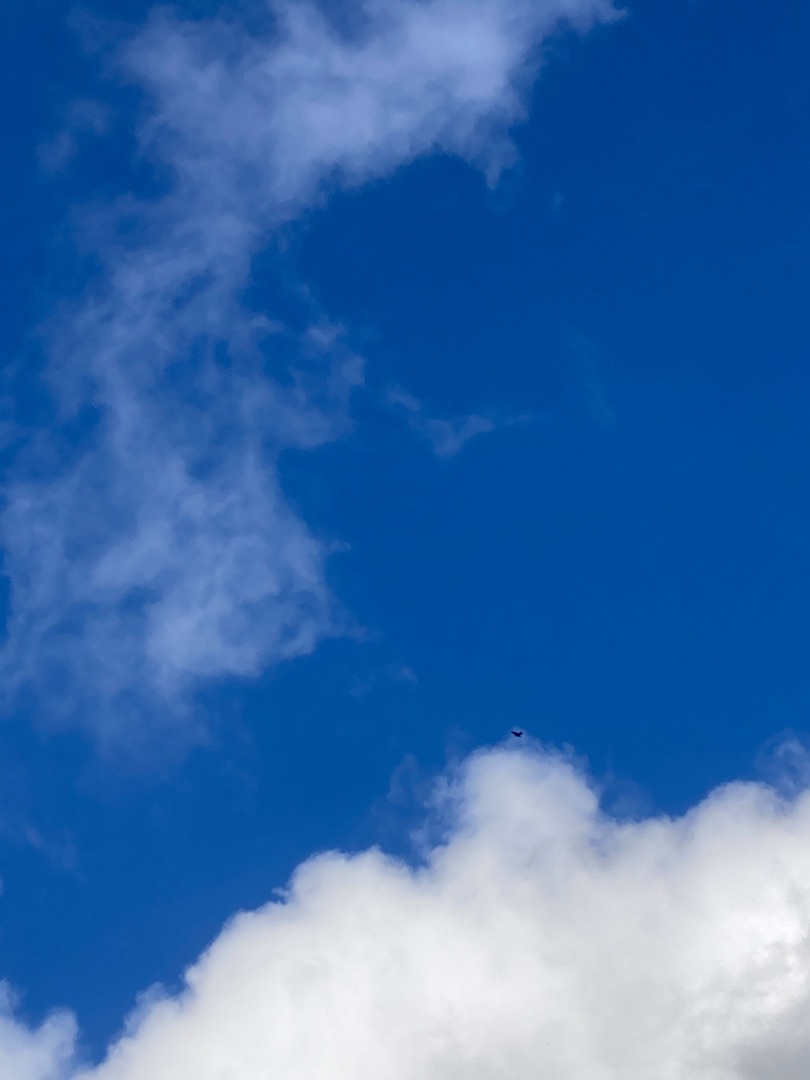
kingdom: Animalia
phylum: Chordata
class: Aves
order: Accipitriformes
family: Accipitridae
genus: Milvus
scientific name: Milvus milvus
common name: Rød glente
